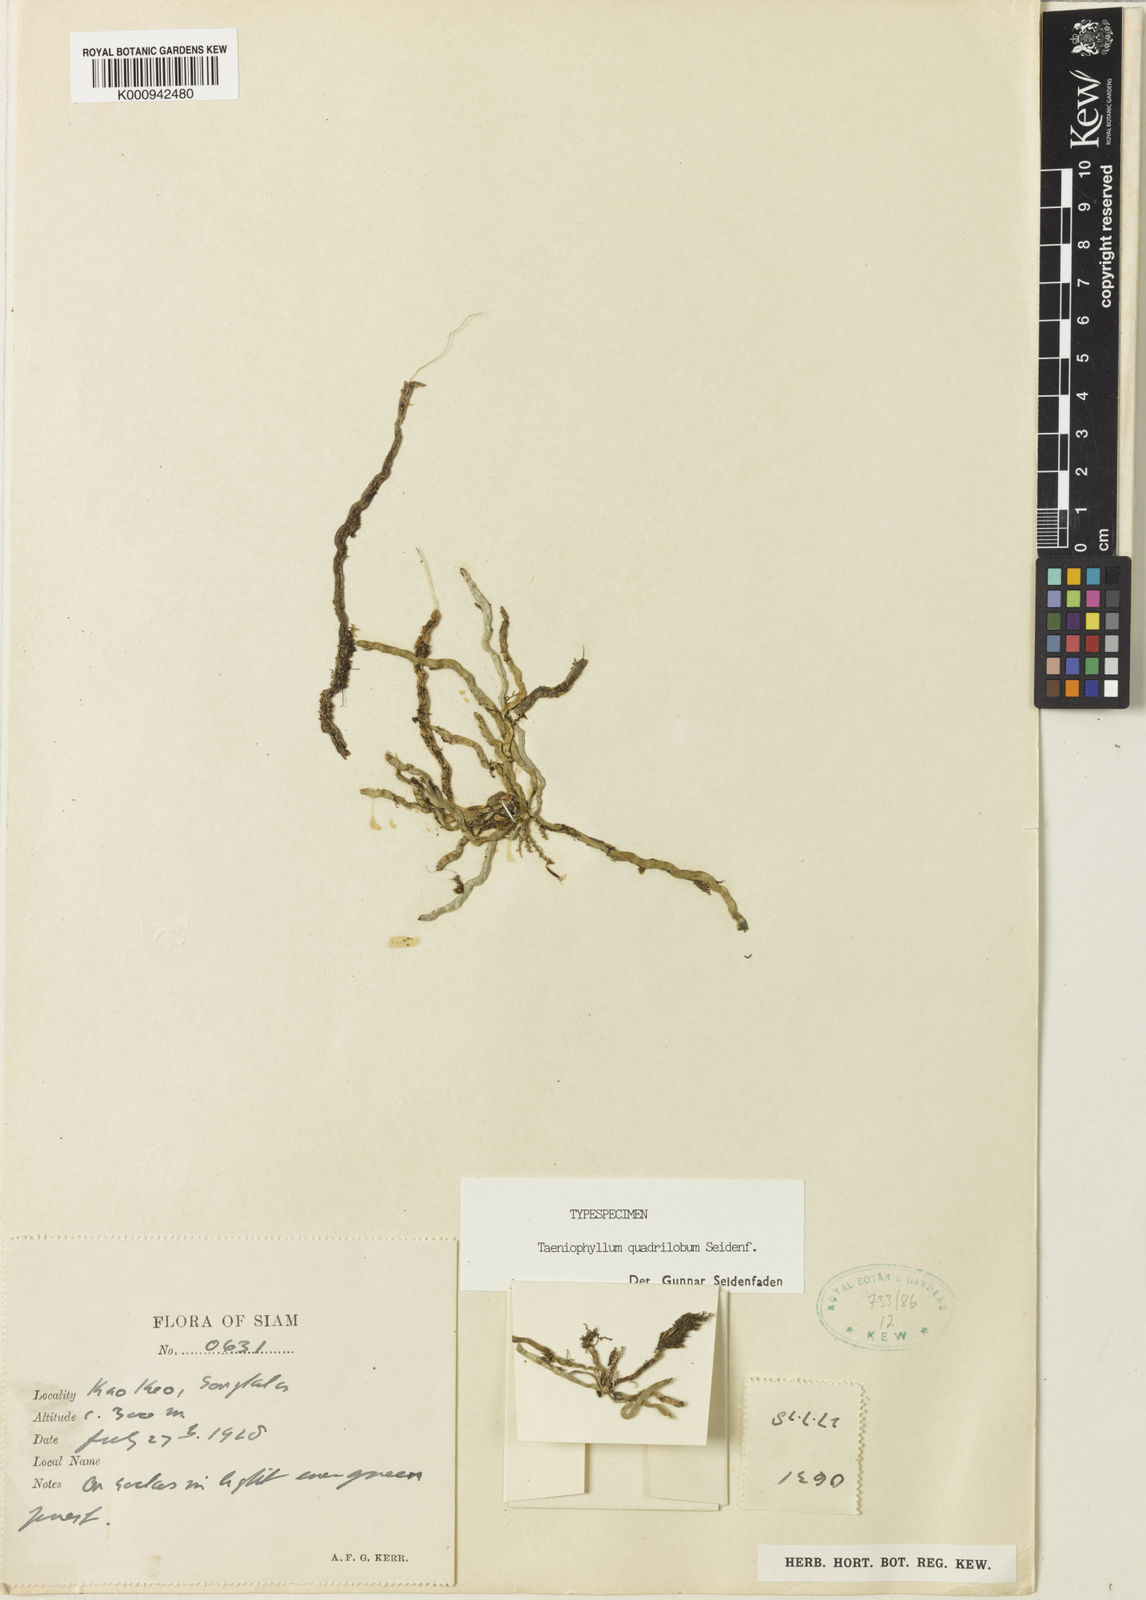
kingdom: Plantae
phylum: Tracheophyta
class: Liliopsida
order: Asparagales
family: Orchidaceae
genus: Taeniophyllum
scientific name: Taeniophyllum quadrilobum
